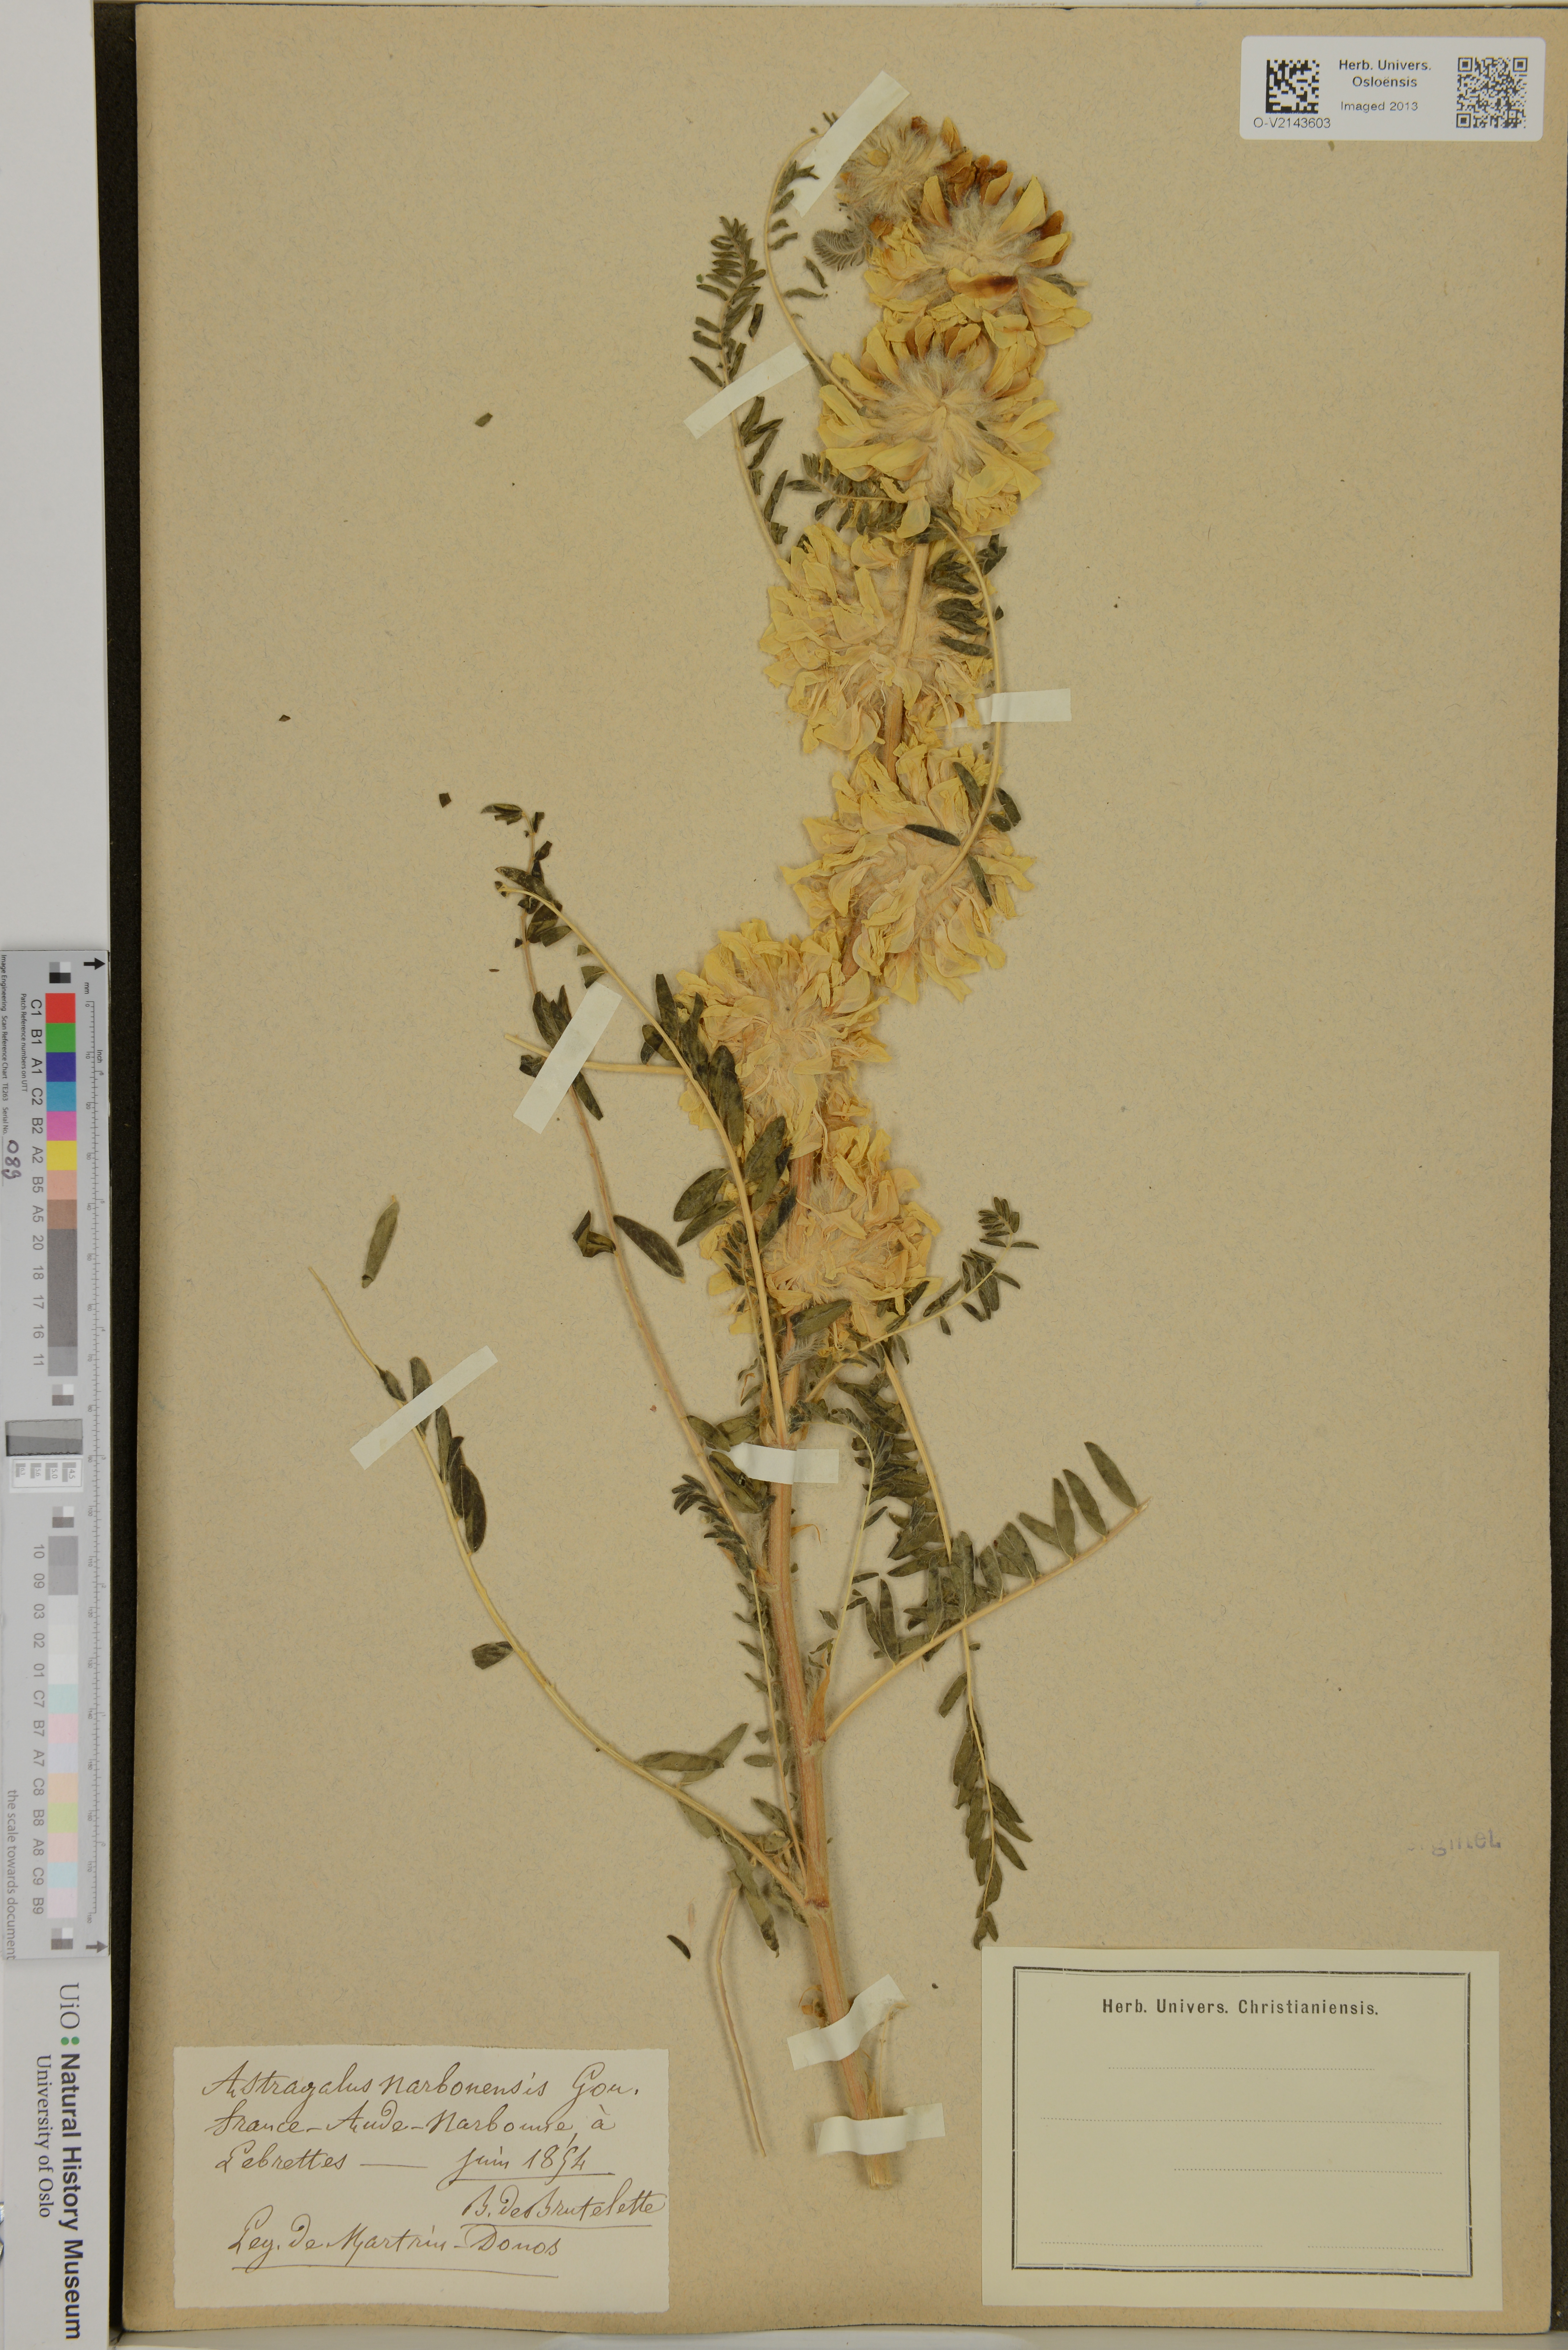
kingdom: Plantae
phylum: Tracheophyta
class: Magnoliopsida
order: Fabales
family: Fabaceae
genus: Astragalus
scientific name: Astragalus
